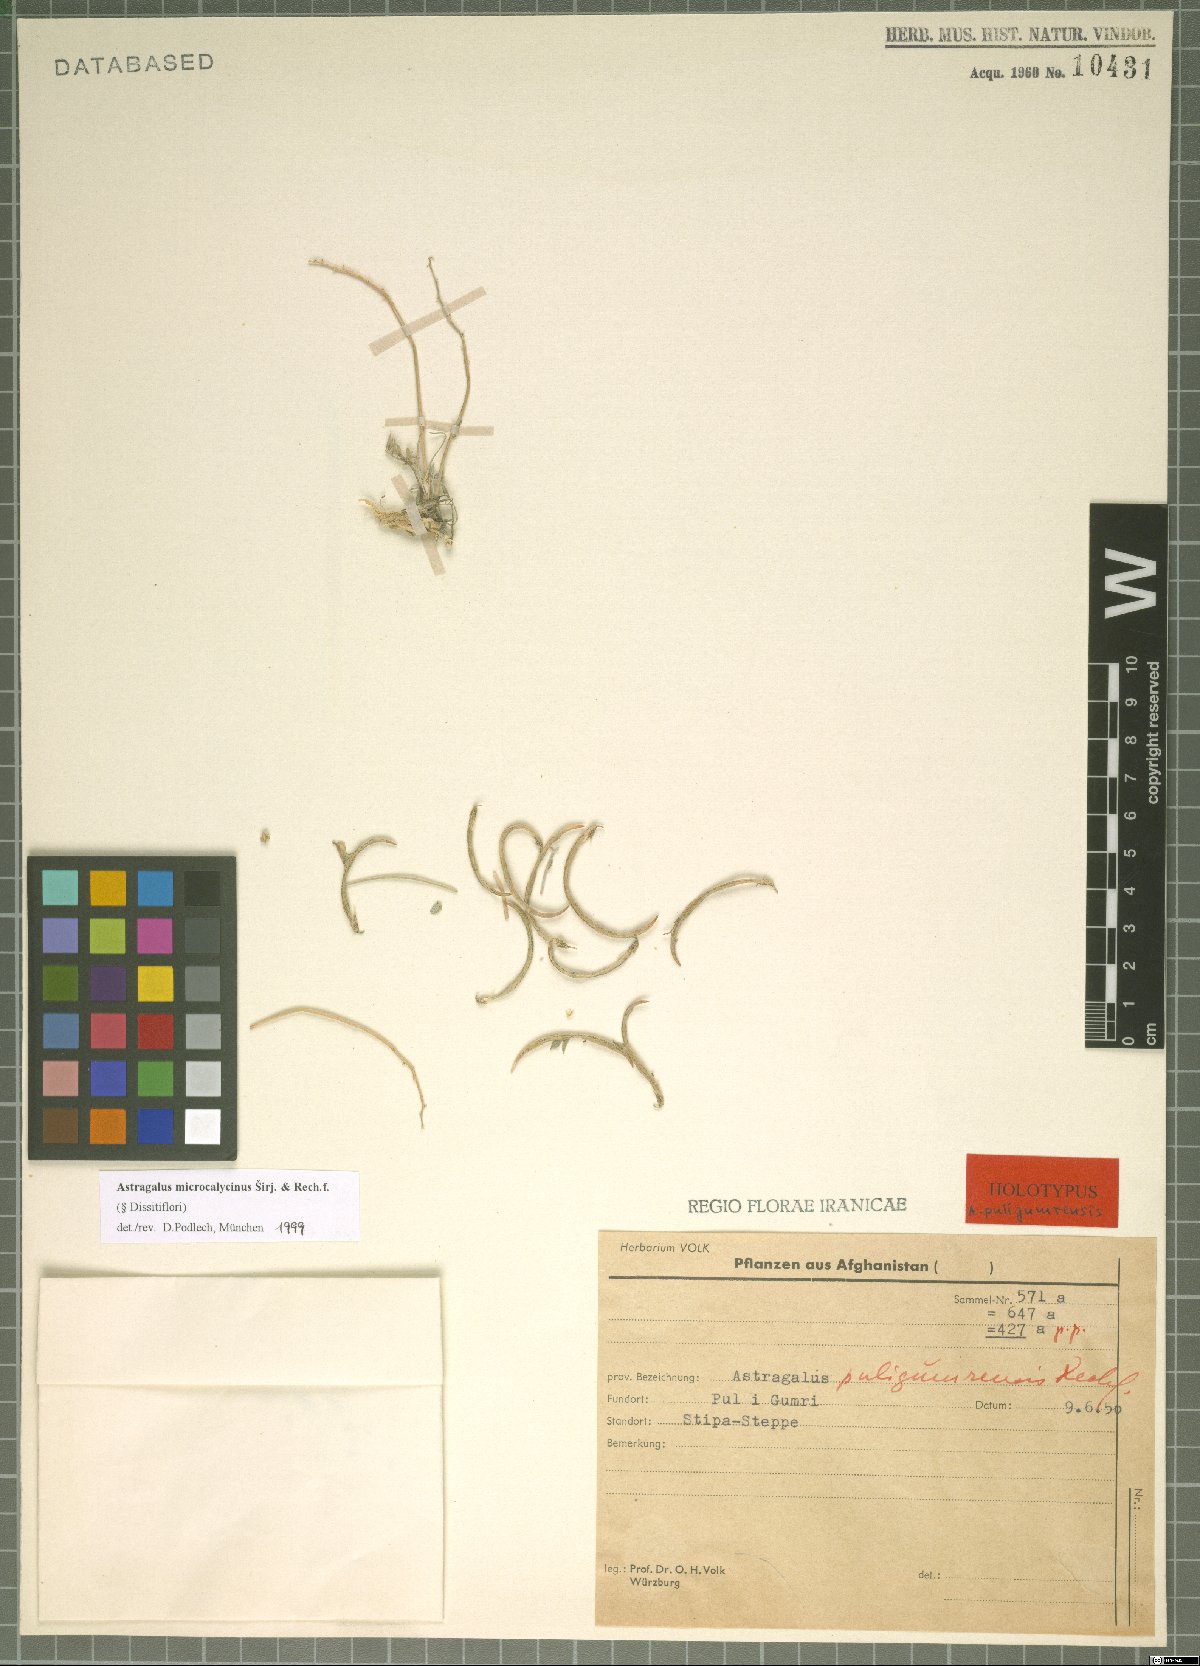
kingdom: Plantae
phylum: Tracheophyta
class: Magnoliopsida
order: Fabales
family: Fabaceae
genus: Astragalus
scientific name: Astragalus microcalycinus
